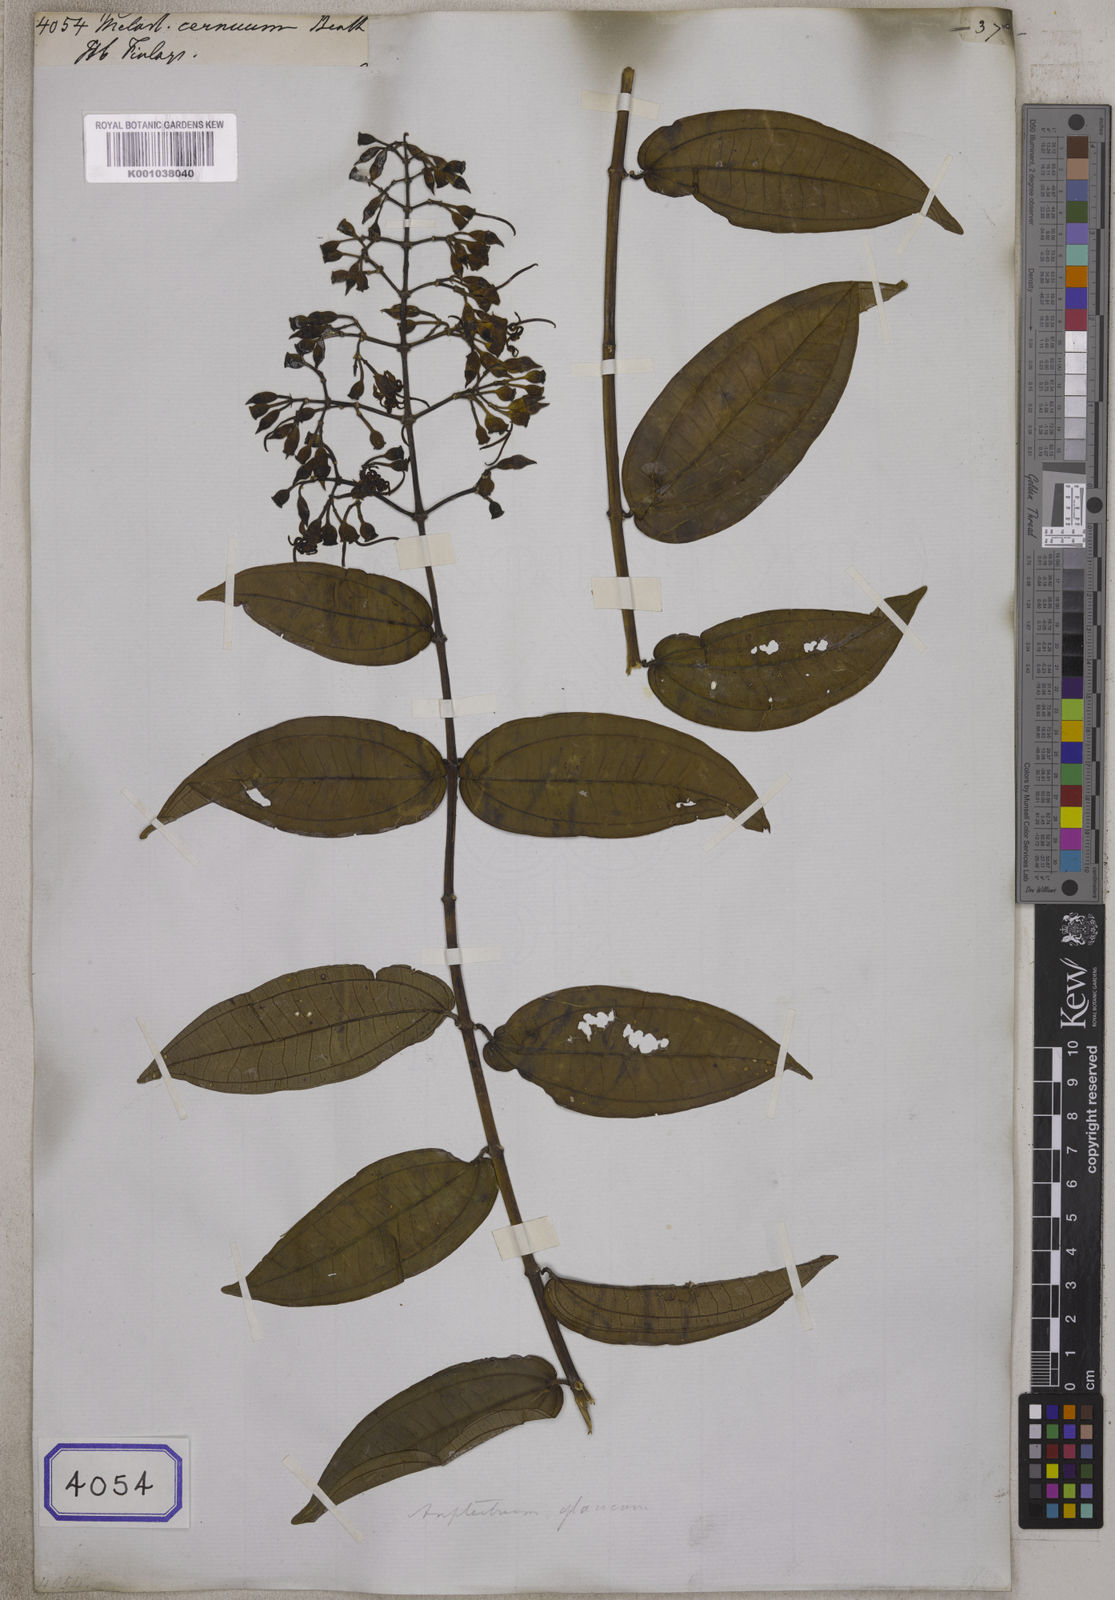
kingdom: Plantae
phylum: Tracheophyta
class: Magnoliopsida
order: Myrtales
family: Melastomataceae
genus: Melastoma
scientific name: Melastoma
